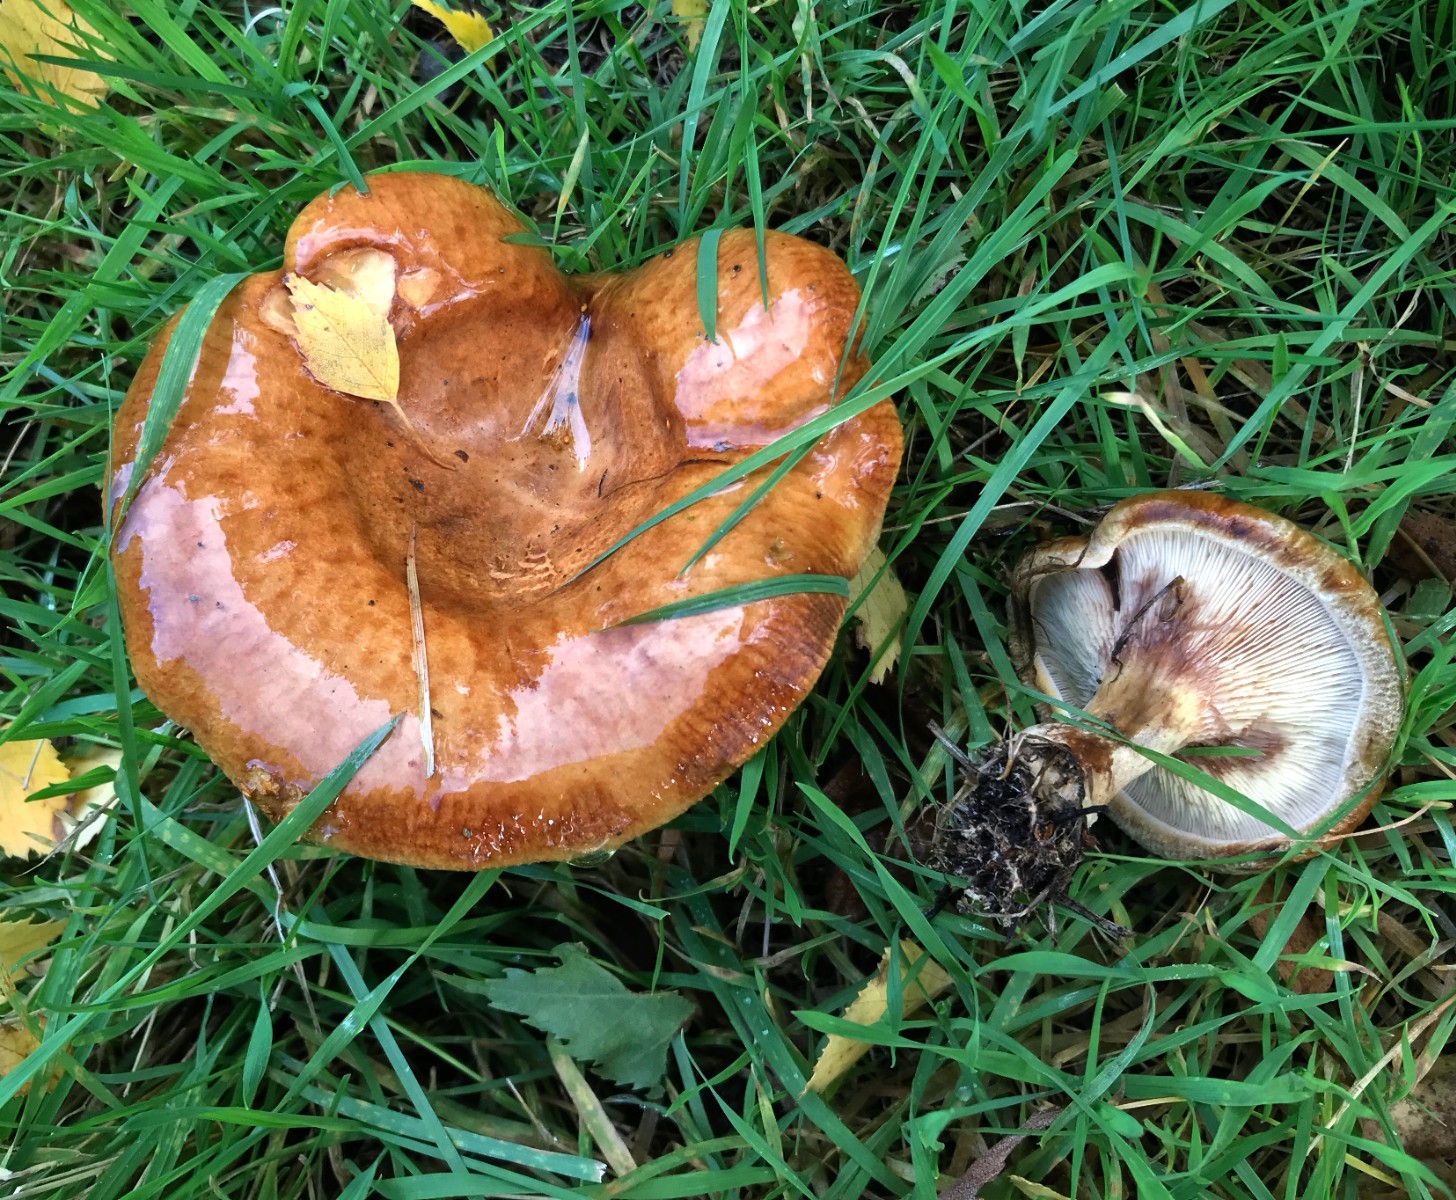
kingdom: Fungi
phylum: Basidiomycota
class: Agaricomycetes
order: Boletales
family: Paxillaceae
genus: Paxillus
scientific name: Paxillus involutus
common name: almindelig netbladhat
